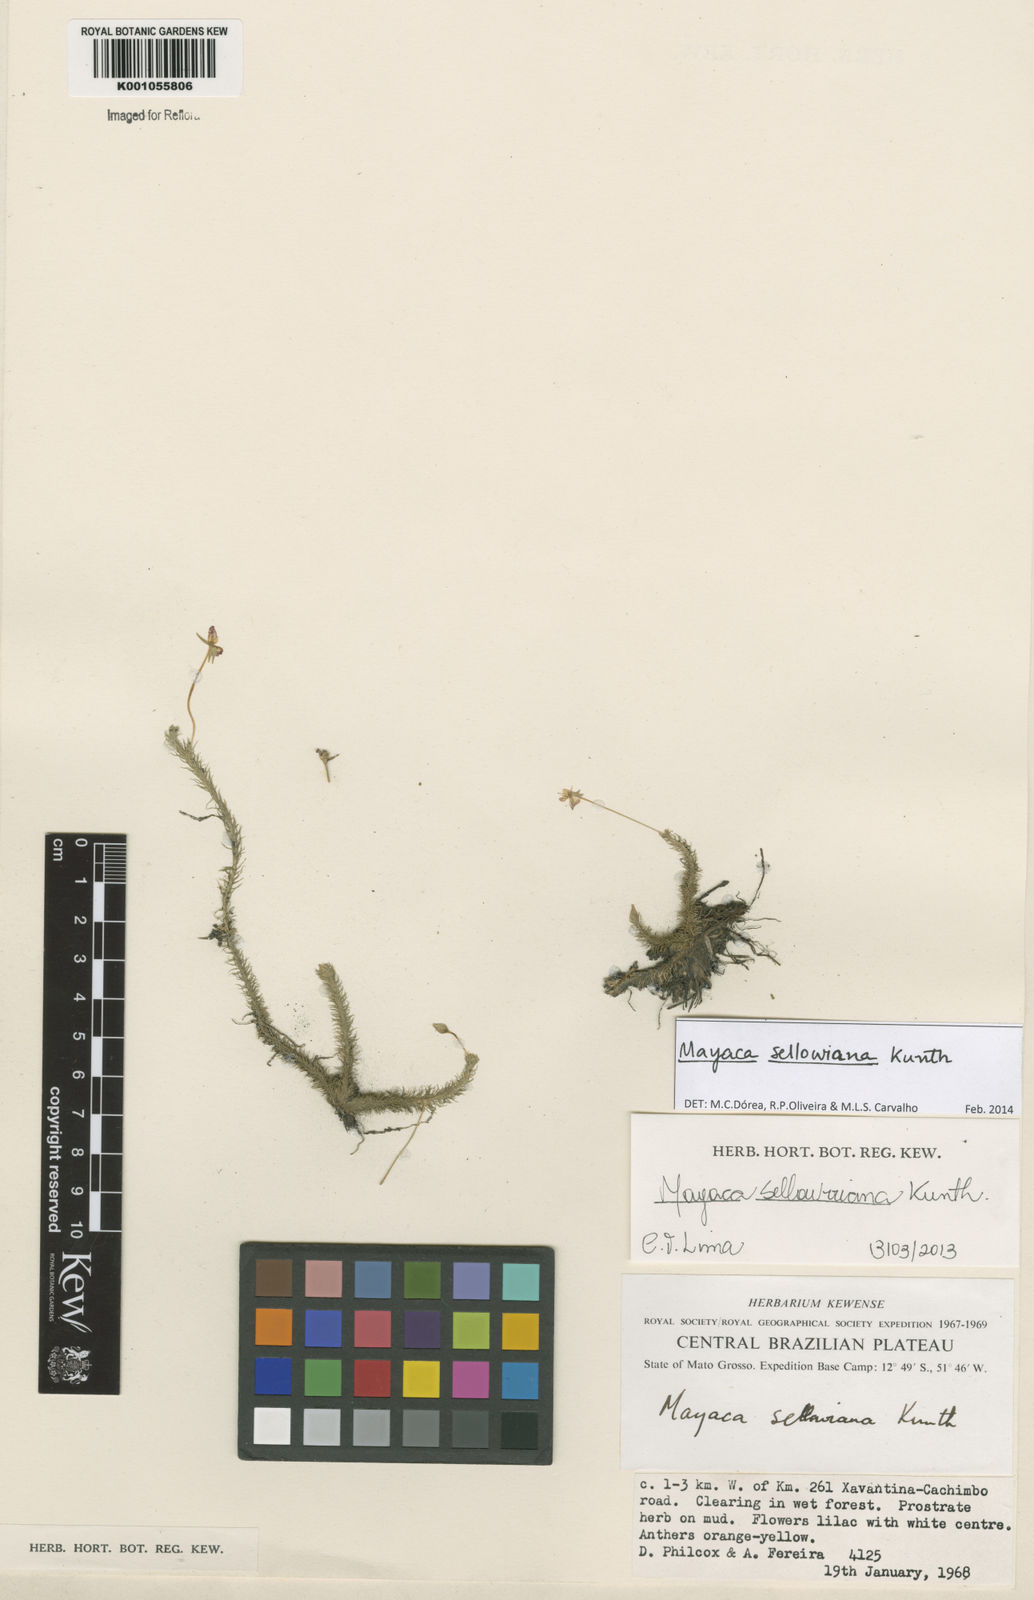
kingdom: Plantae
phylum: Tracheophyta
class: Liliopsida
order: Poales
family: Mayacaceae
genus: Mayaca
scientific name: Mayaca sellowiana
